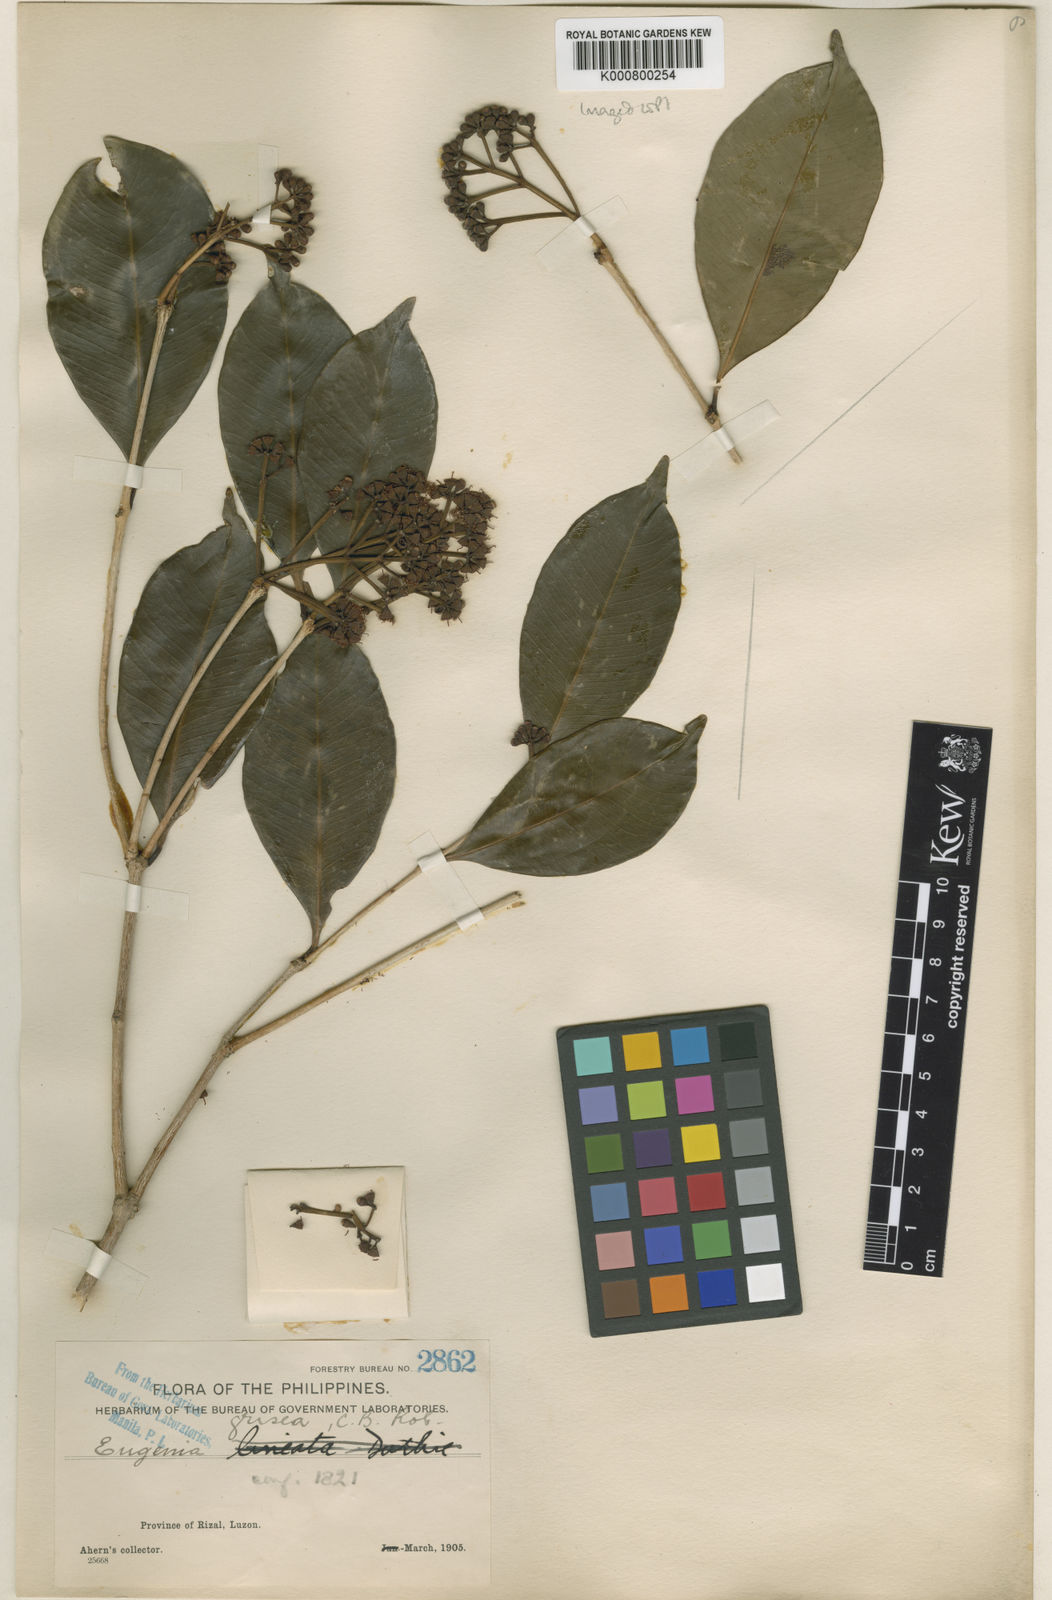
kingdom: Plantae
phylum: Tracheophyta
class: Magnoliopsida
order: Myrtales
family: Myrtaceae
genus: Syzygium
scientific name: Syzygium griseum
